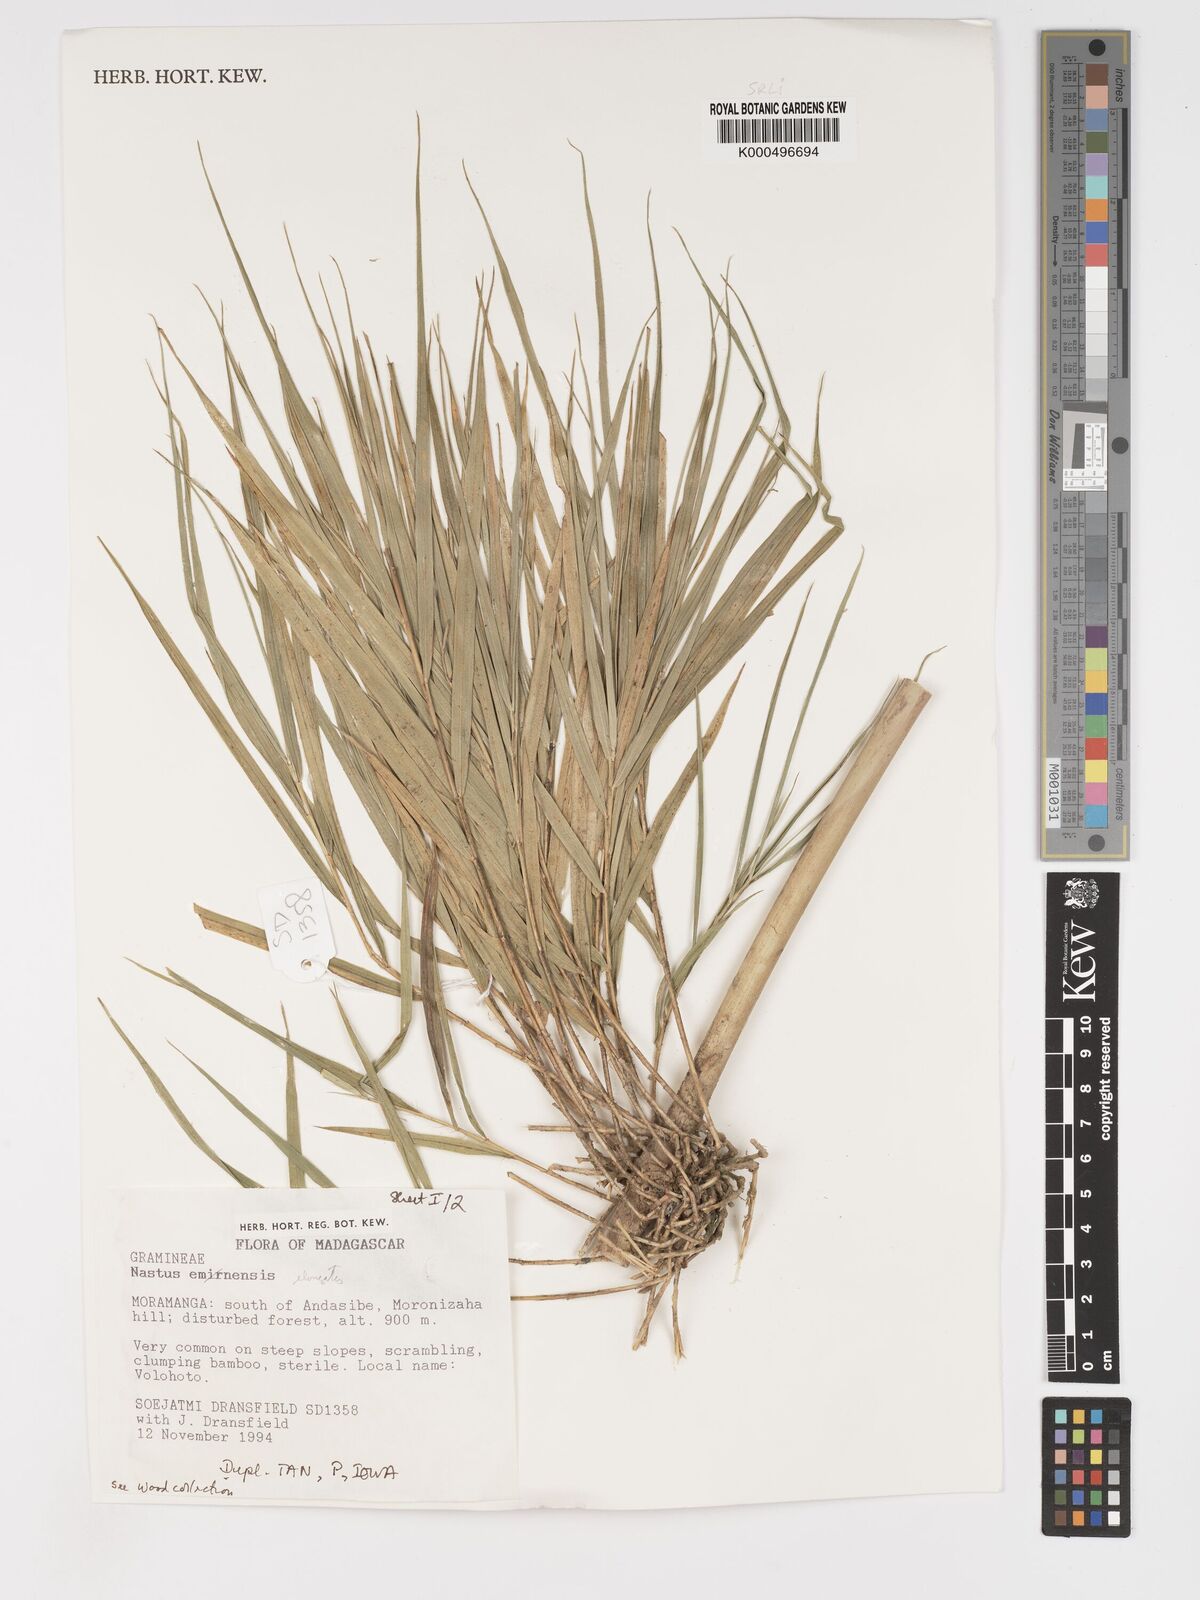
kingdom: Plantae
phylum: Tracheophyta
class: Liliopsida
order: Poales
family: Poaceae
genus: Nastus
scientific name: Nastus elongatus
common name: Spider bamboo
